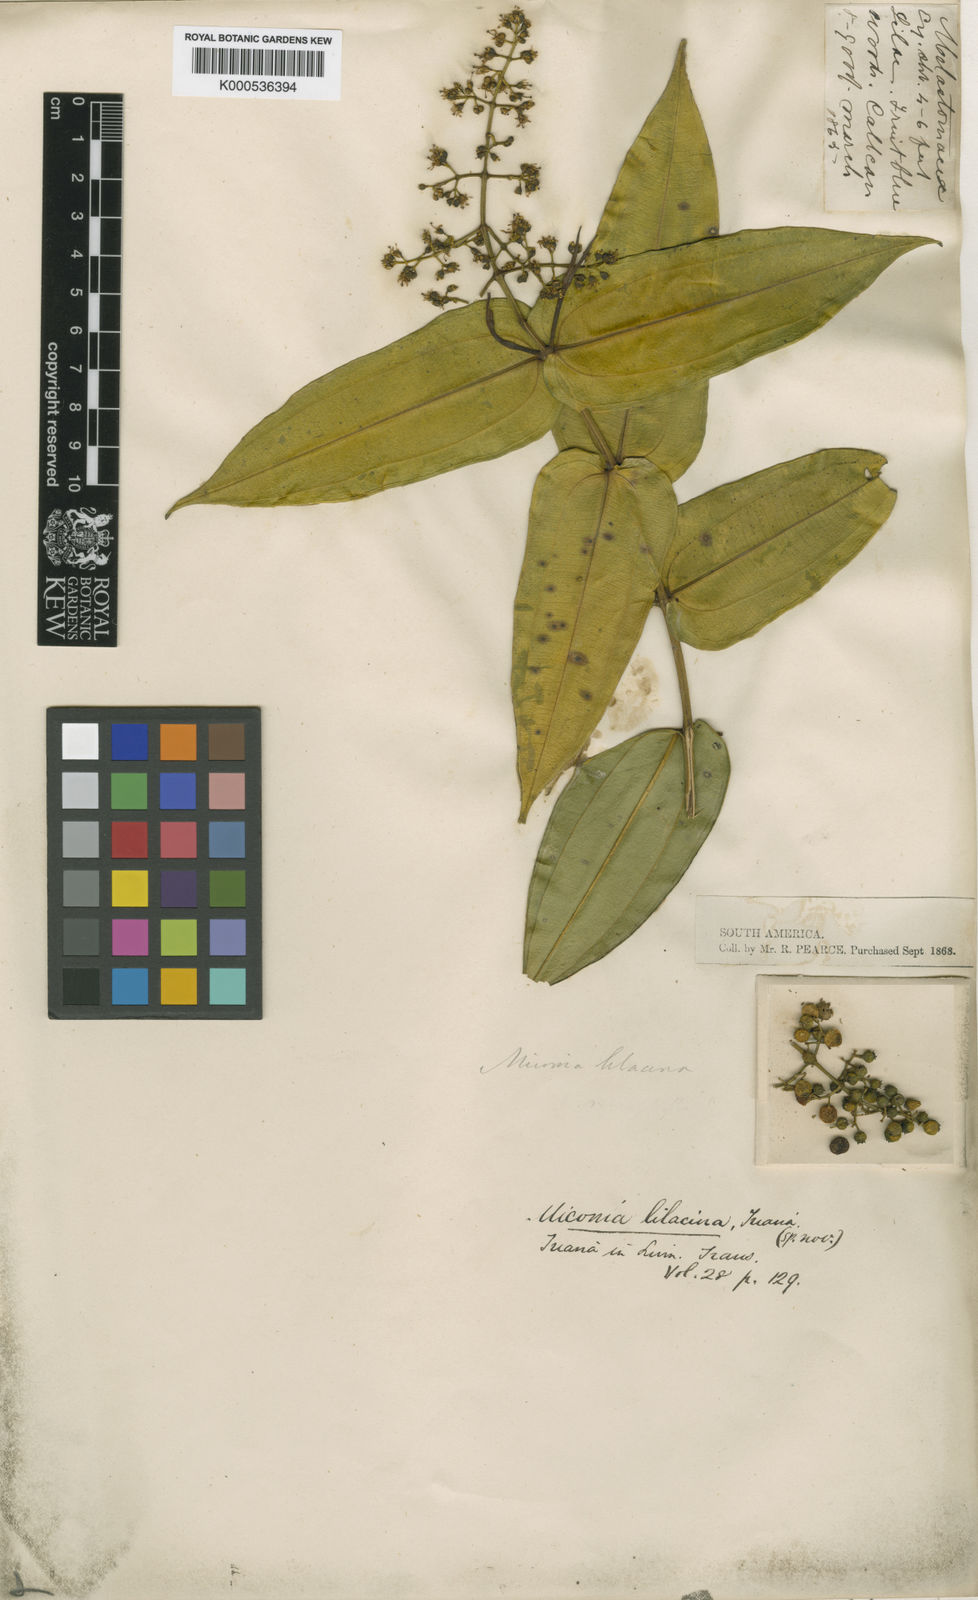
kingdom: Plantae
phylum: Tracheophyta
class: Magnoliopsida
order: Myrtales
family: Melastomataceae
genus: Miconia
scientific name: Miconia lilacina
